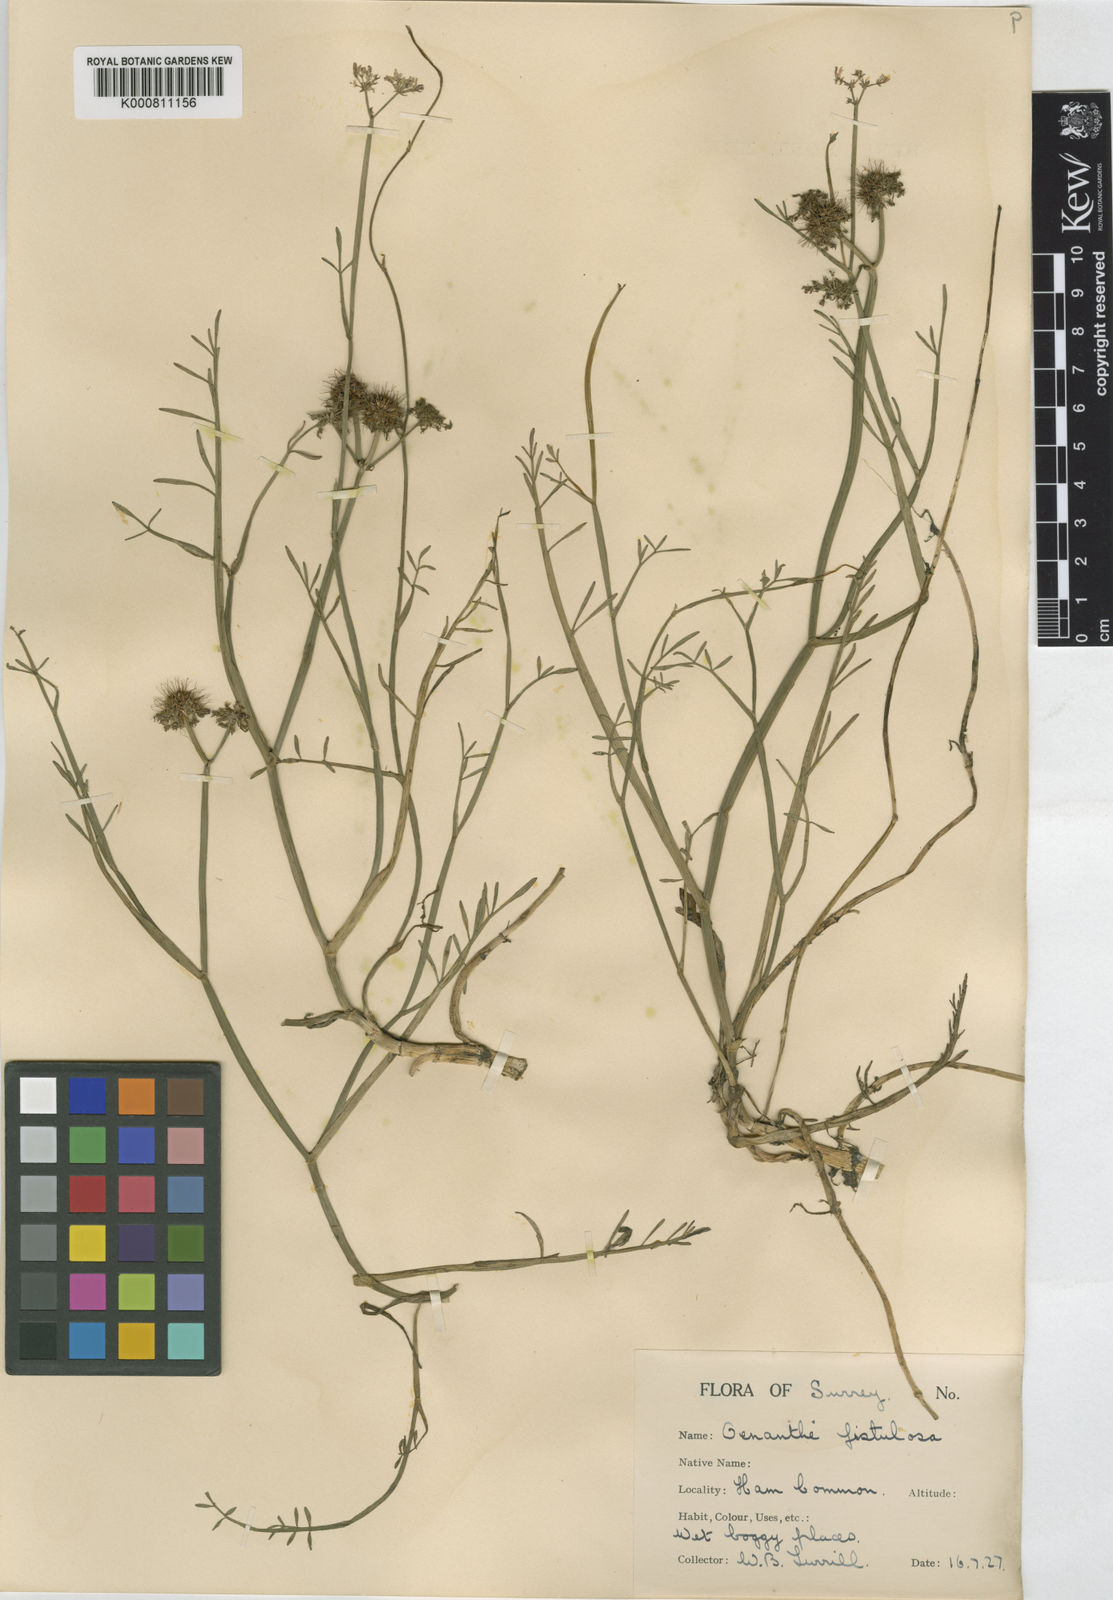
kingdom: Plantae
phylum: Tracheophyta
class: Magnoliopsida
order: Apiales
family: Apiaceae
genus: Oenanthe
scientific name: Oenanthe fistulosa
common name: Tubular water-dropwort
